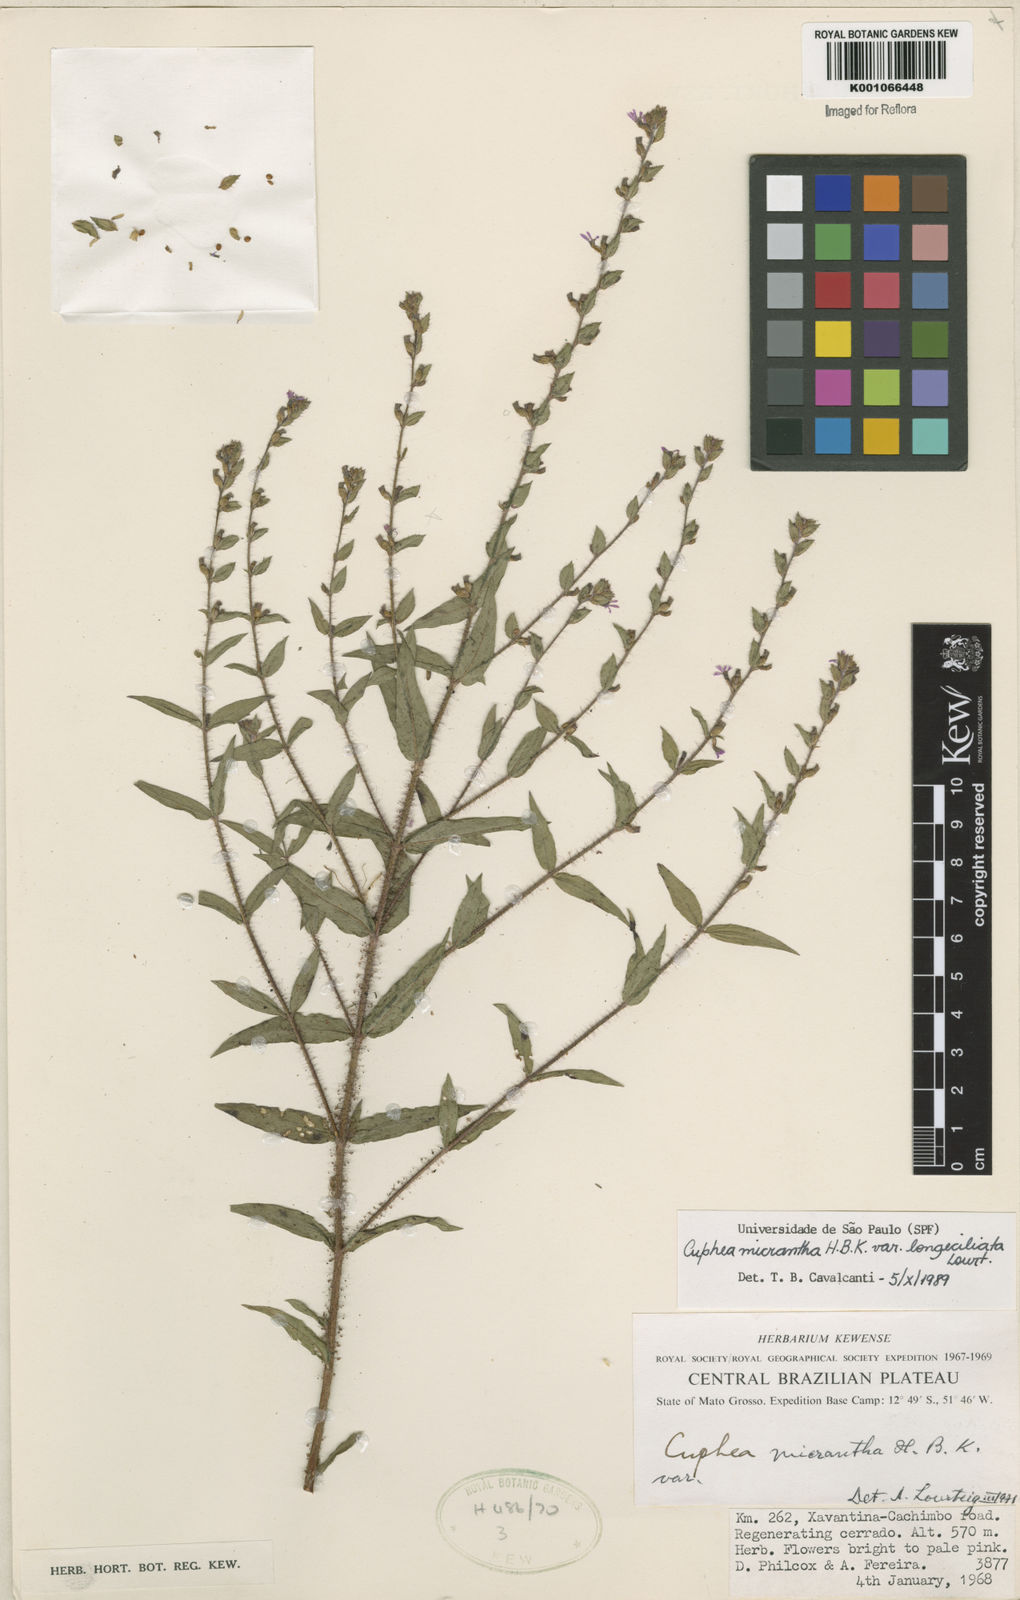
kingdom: Plantae
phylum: Tracheophyta
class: Magnoliopsida
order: Myrtales
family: Lythraceae
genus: Cuphea
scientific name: Cuphea micrantha
